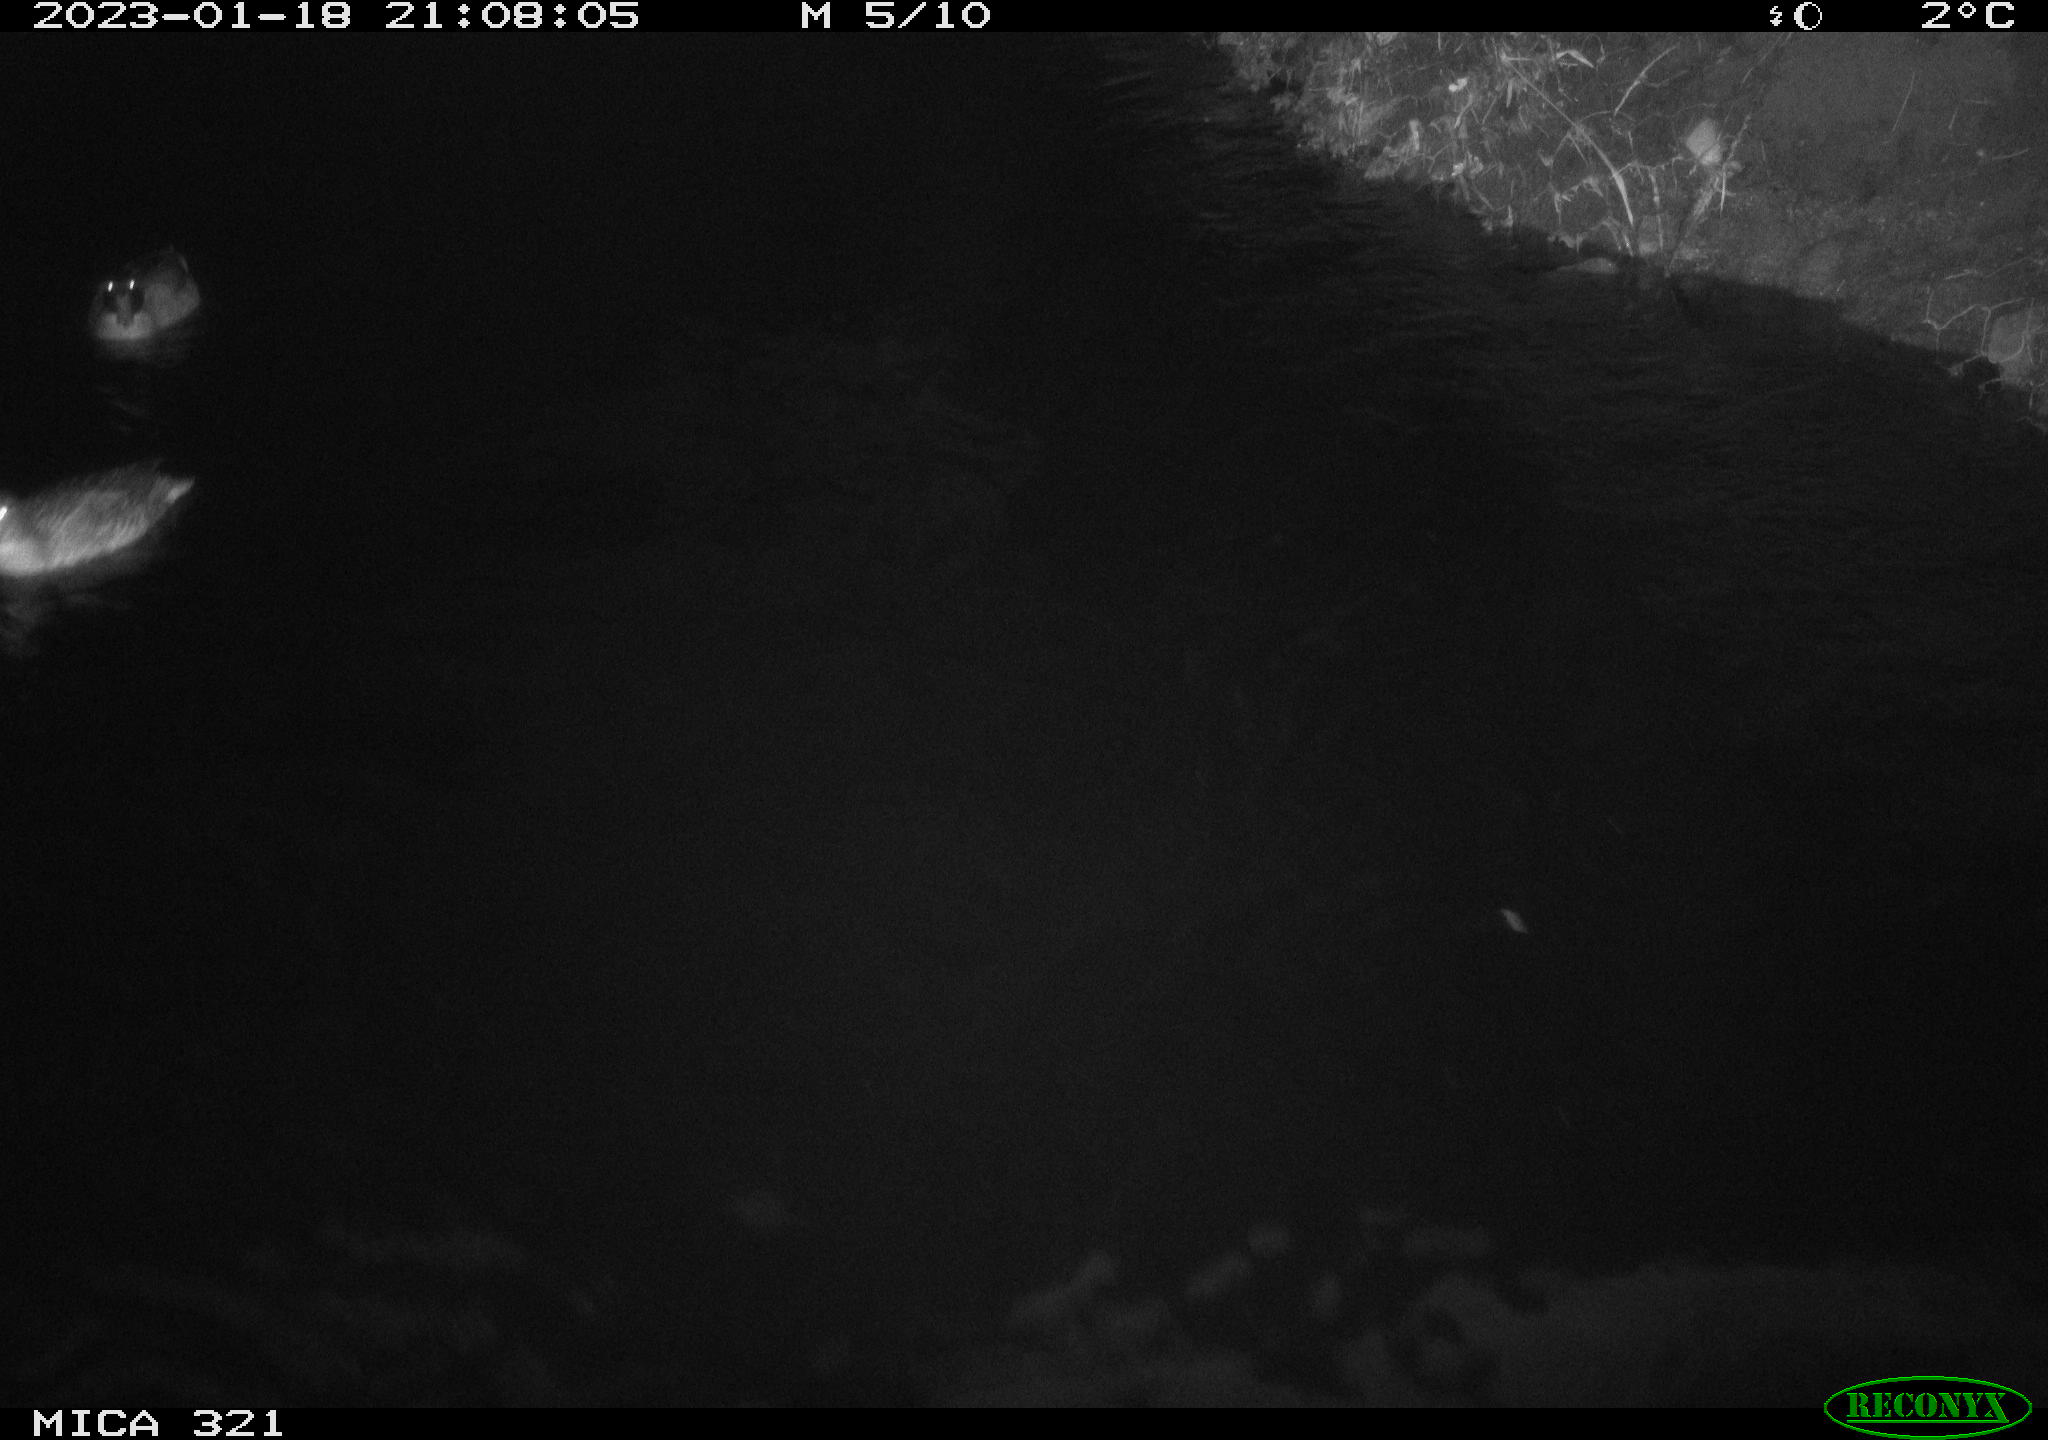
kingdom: Animalia
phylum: Chordata
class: Aves
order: Anseriformes
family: Anatidae
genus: Anas
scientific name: Anas
